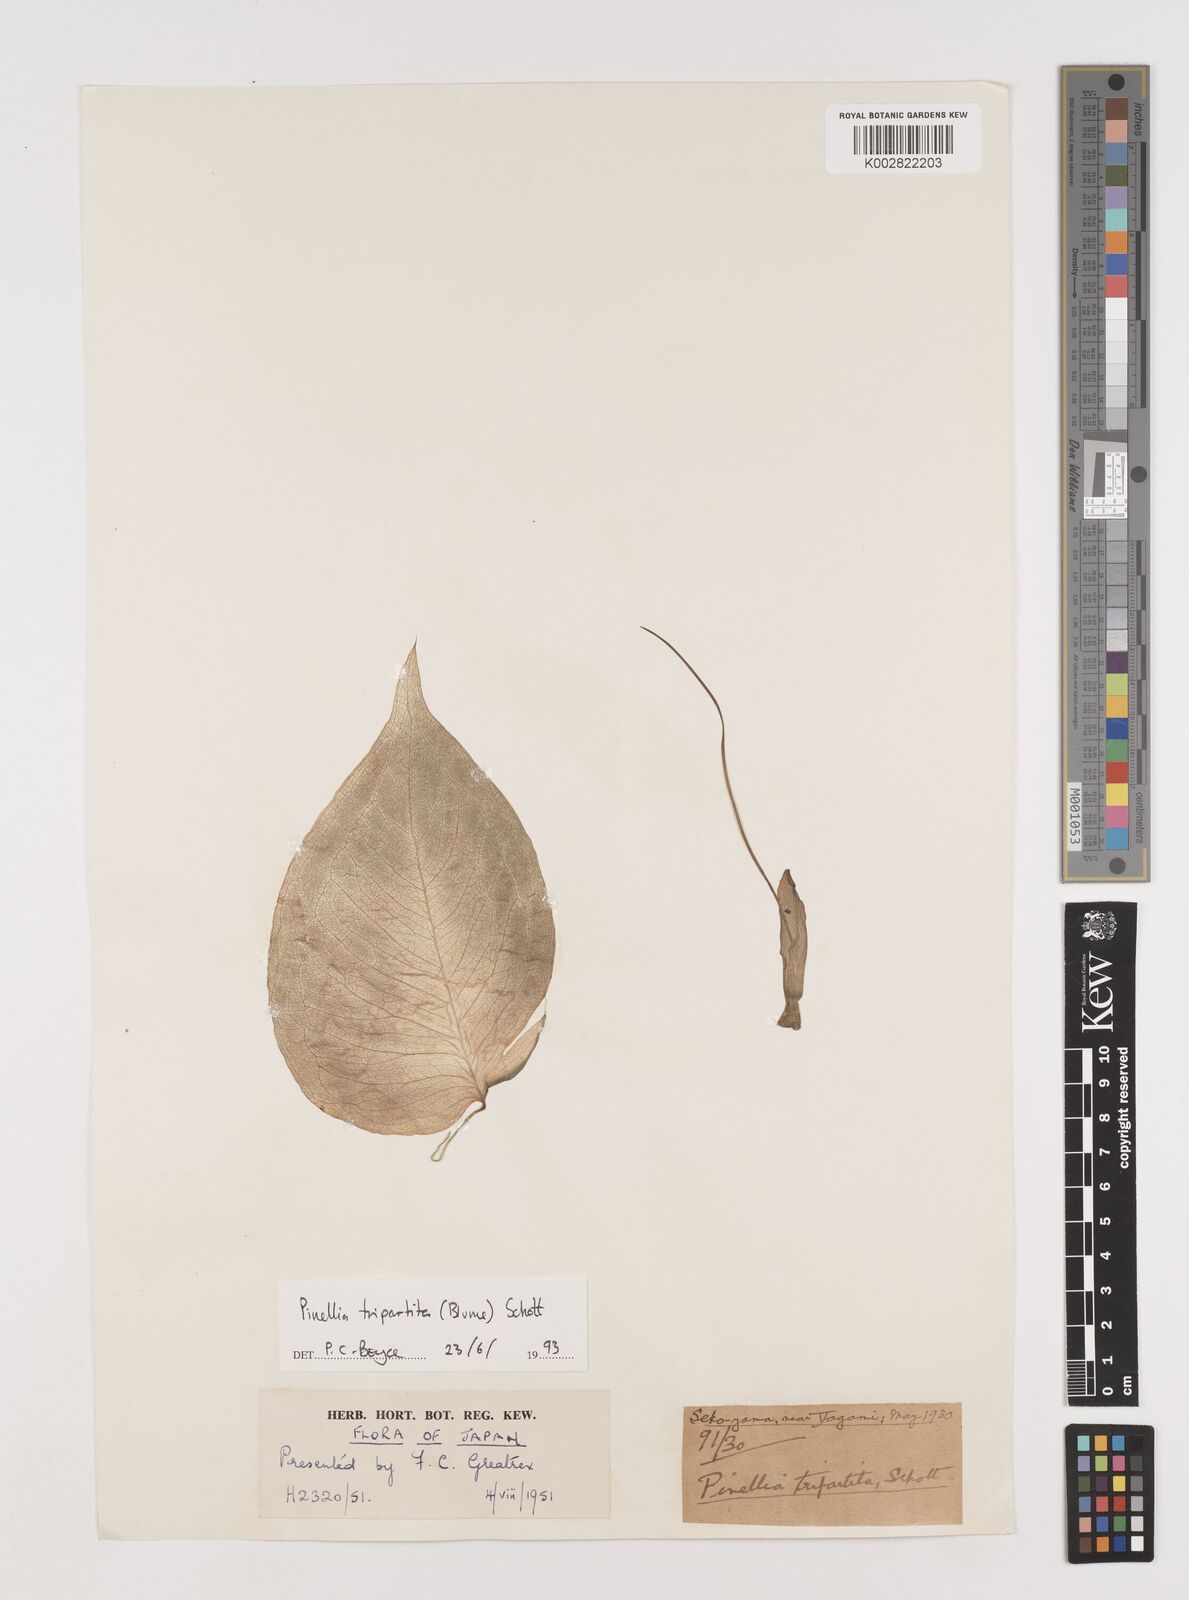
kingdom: Plantae
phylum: Tracheophyta
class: Liliopsida
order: Alismatales
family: Araceae
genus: Pinellia
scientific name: Pinellia tripartita
